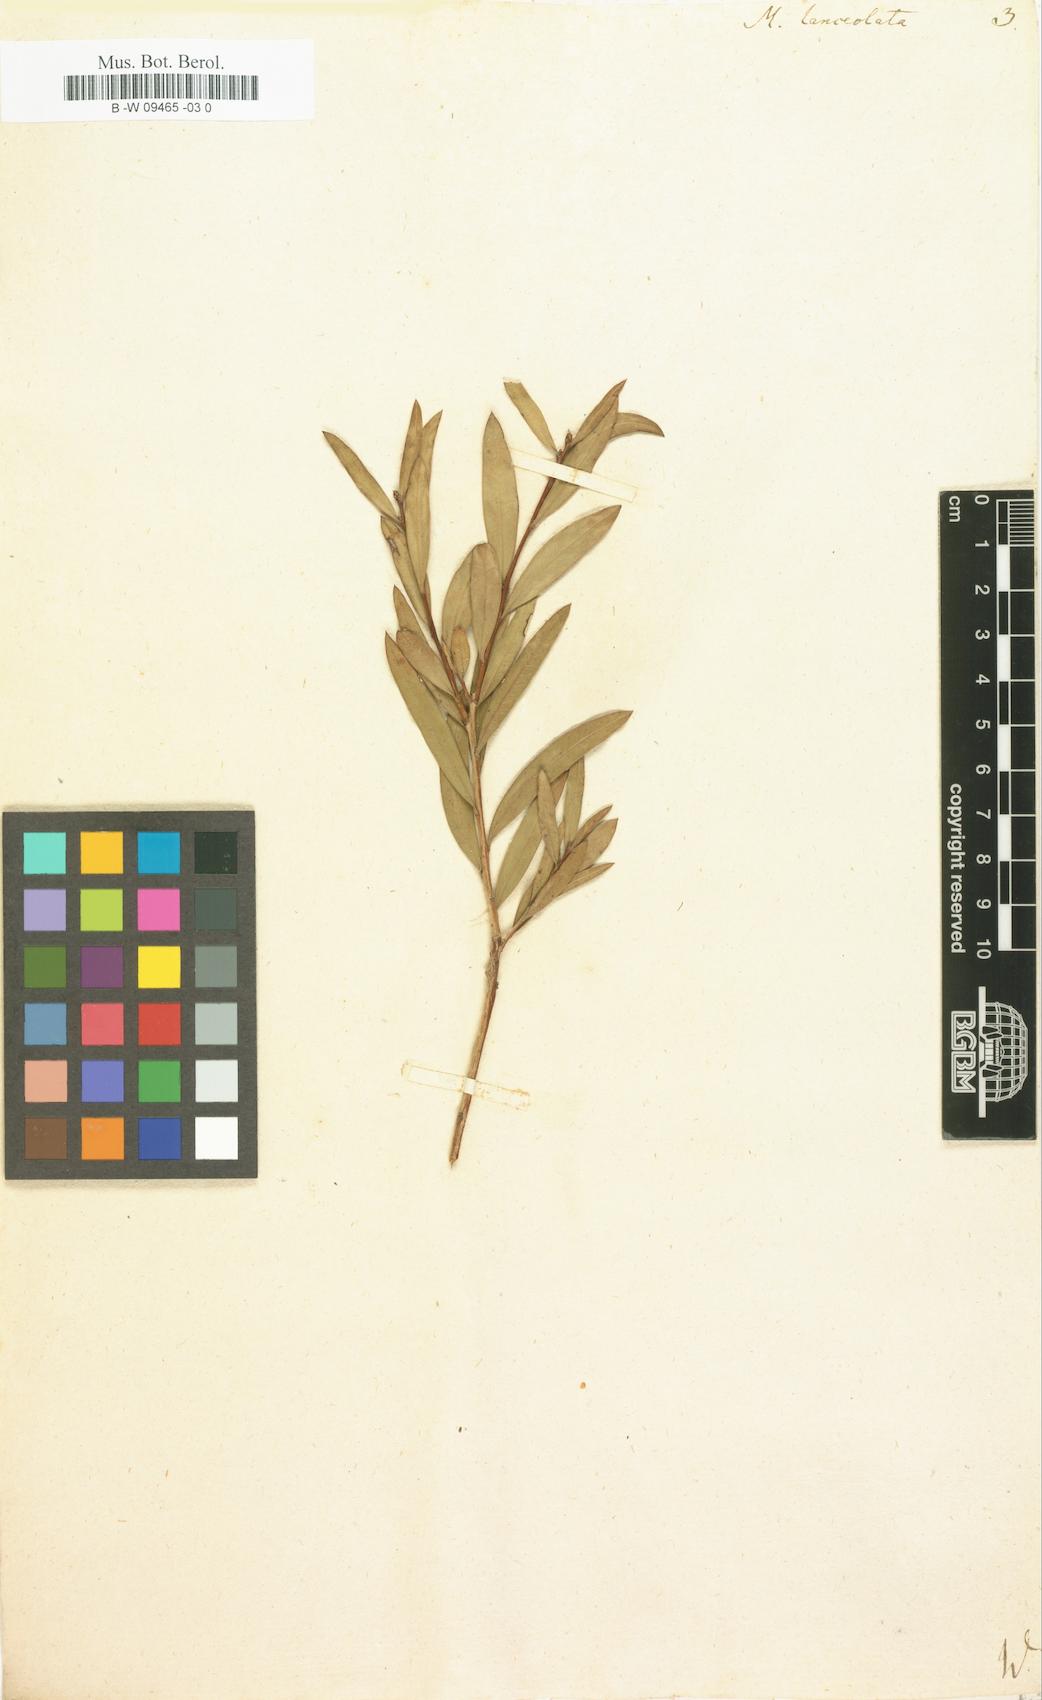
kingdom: Plantae
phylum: Tracheophyta
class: Magnoliopsida
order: Myrtales
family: Myrtaceae
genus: Callistemon
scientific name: Callistemon citrinus
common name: Crimson bottlebrush
